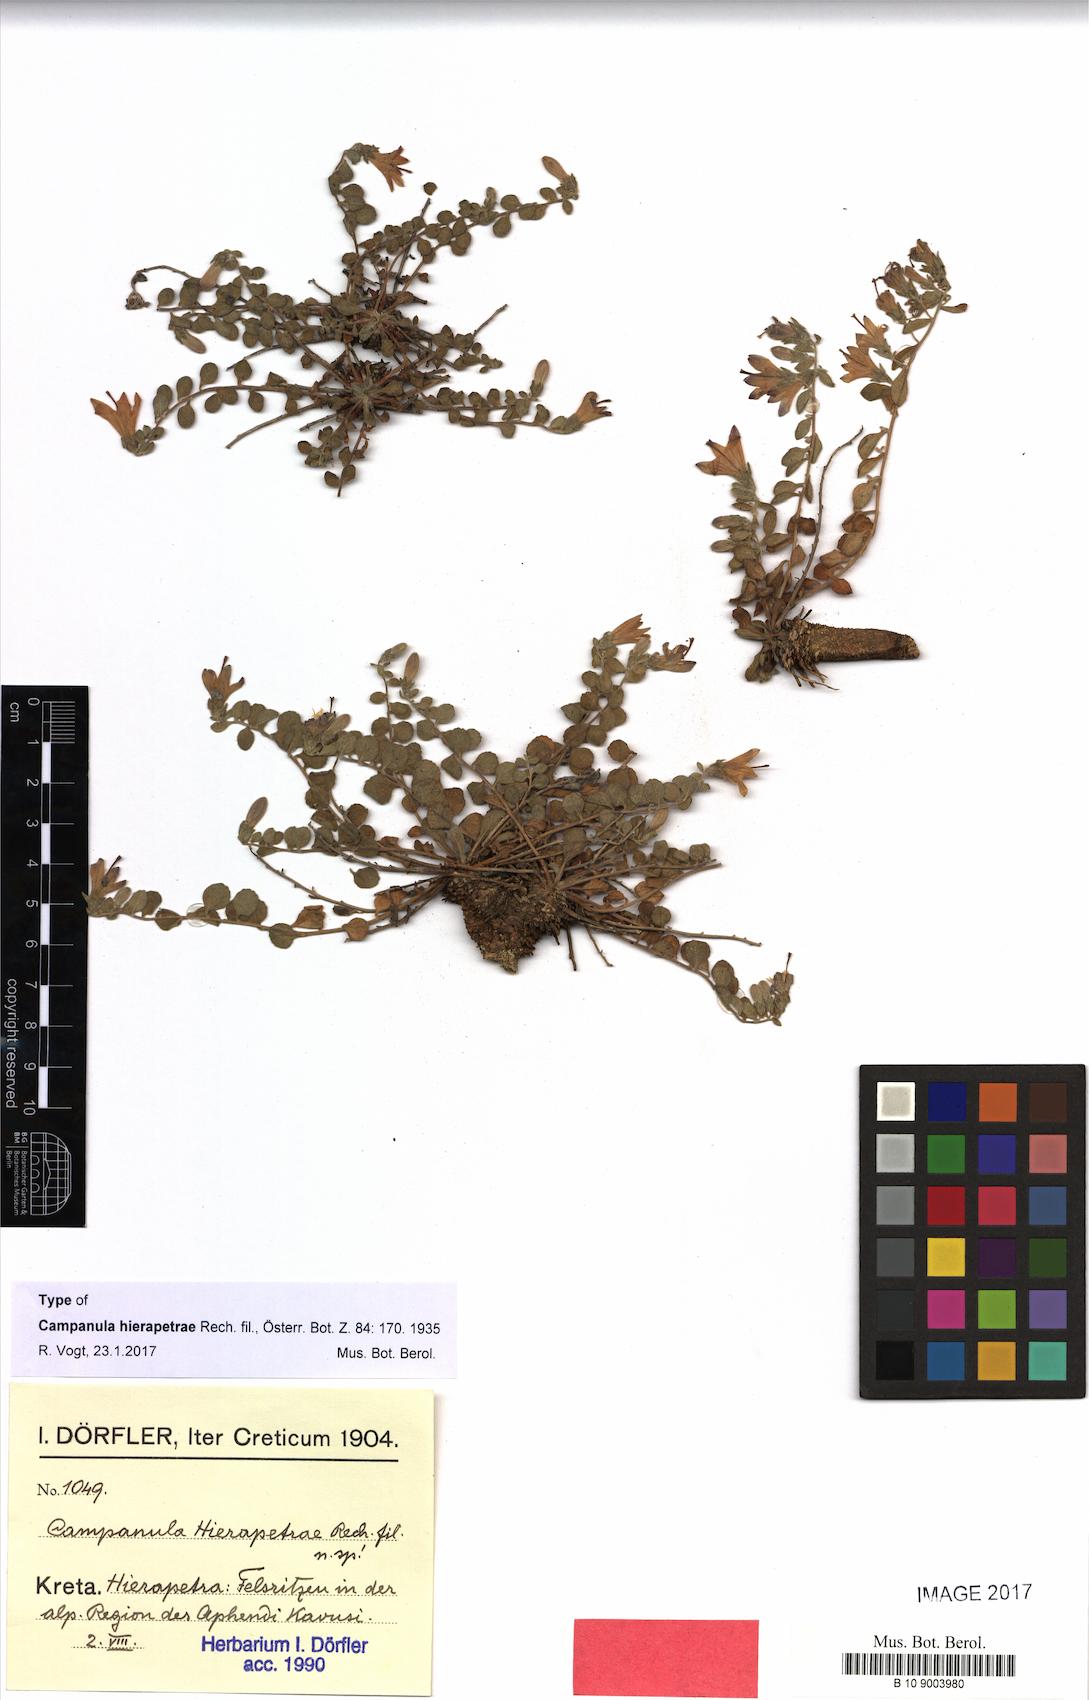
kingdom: Plantae
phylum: Tracheophyta
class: Magnoliopsida
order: Asterales
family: Campanulaceae
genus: Campanula
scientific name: Campanula hierapetrae
